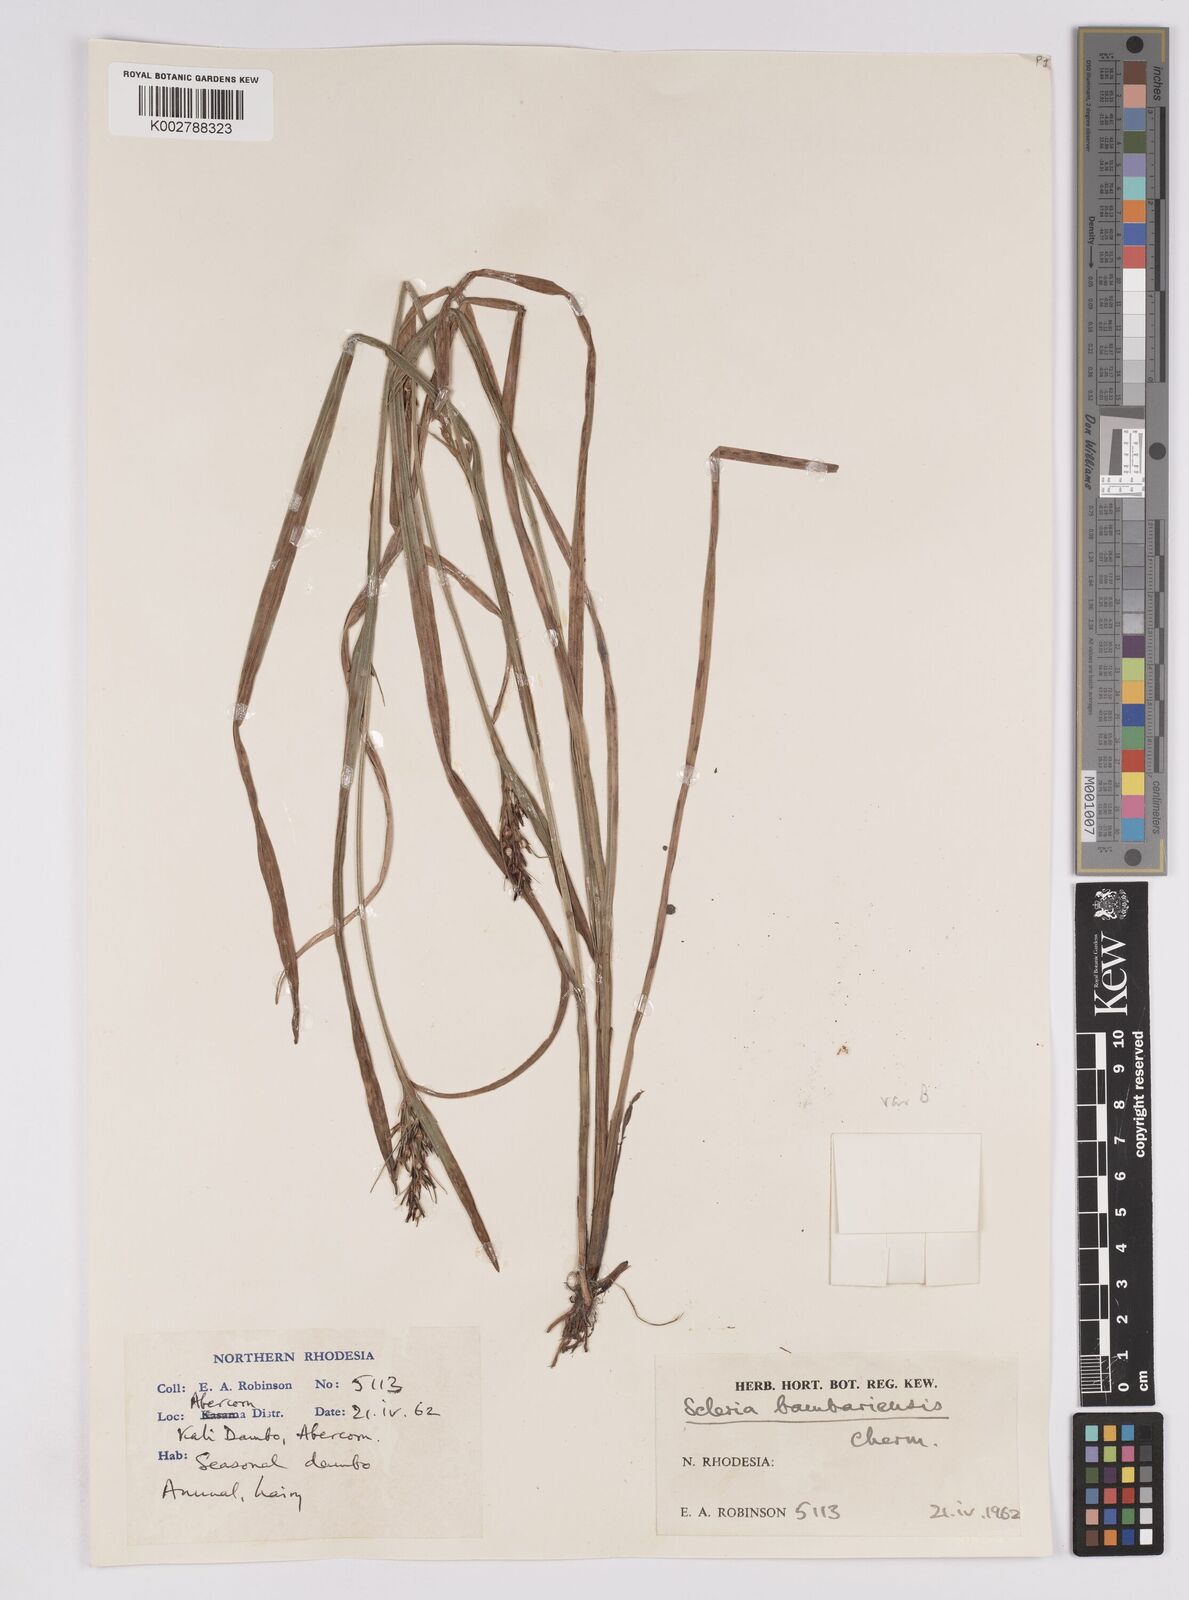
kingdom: Plantae
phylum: Tracheophyta
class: Liliopsida
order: Poales
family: Cyperaceae
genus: Scleria
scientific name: Scleria bambariensis
